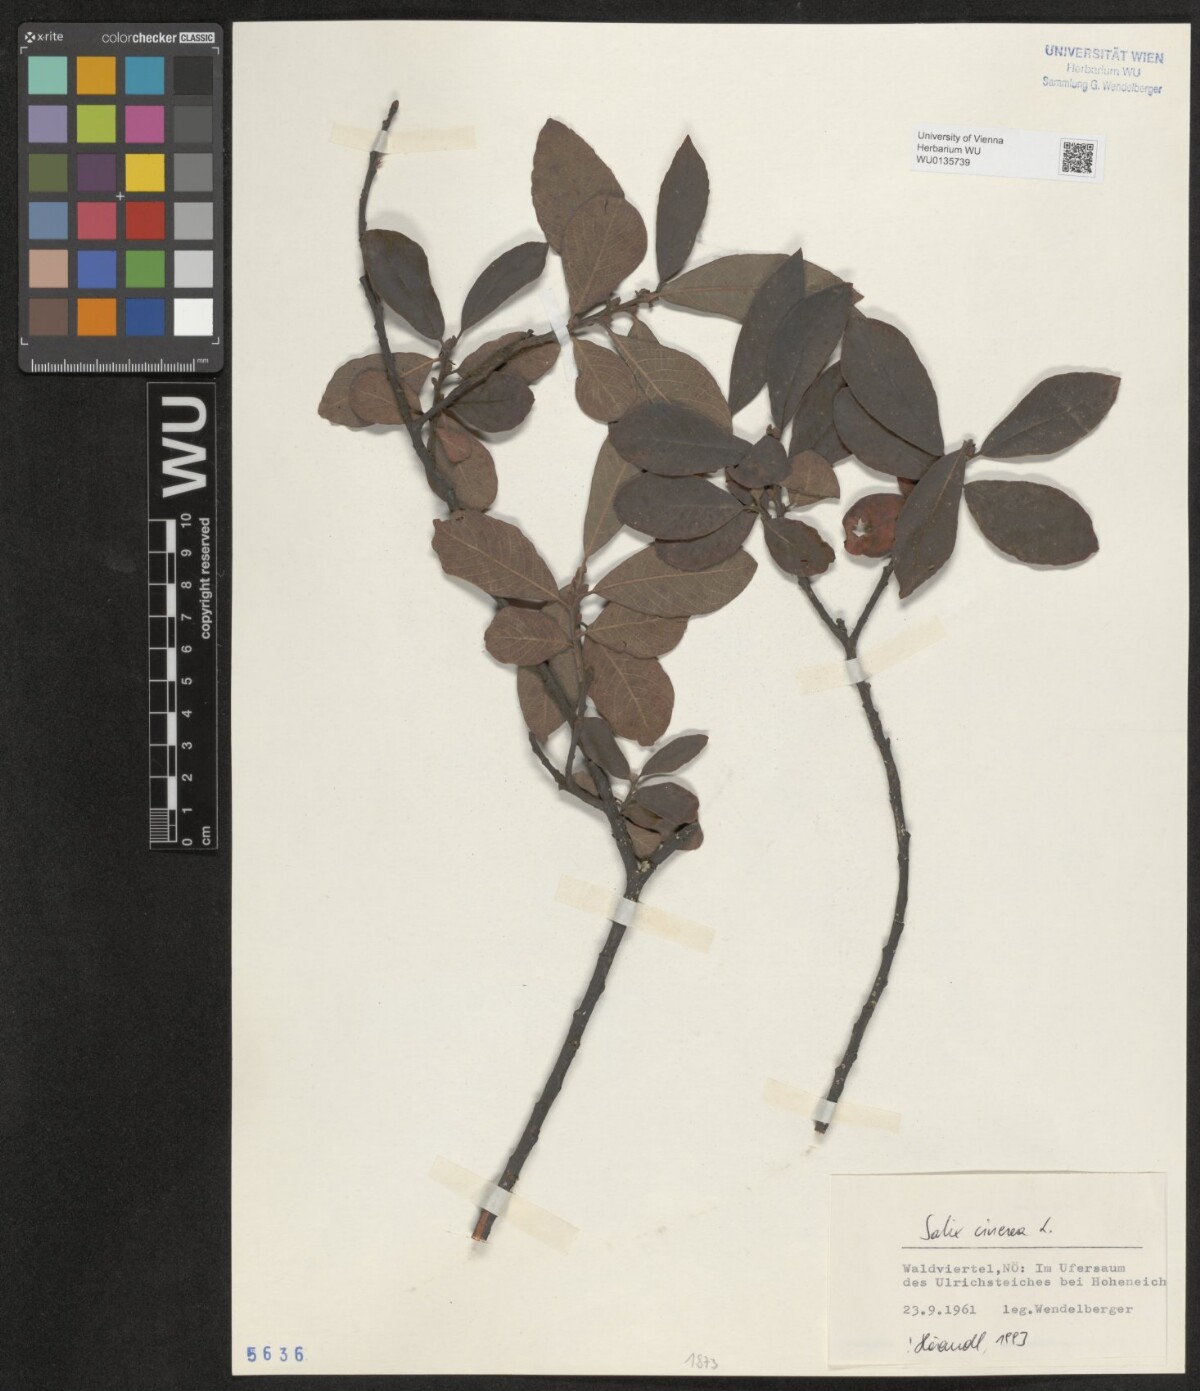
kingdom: Plantae
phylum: Tracheophyta
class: Magnoliopsida
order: Malpighiales
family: Salicaceae
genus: Salix
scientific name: Salix cinerea
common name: Common sallow
